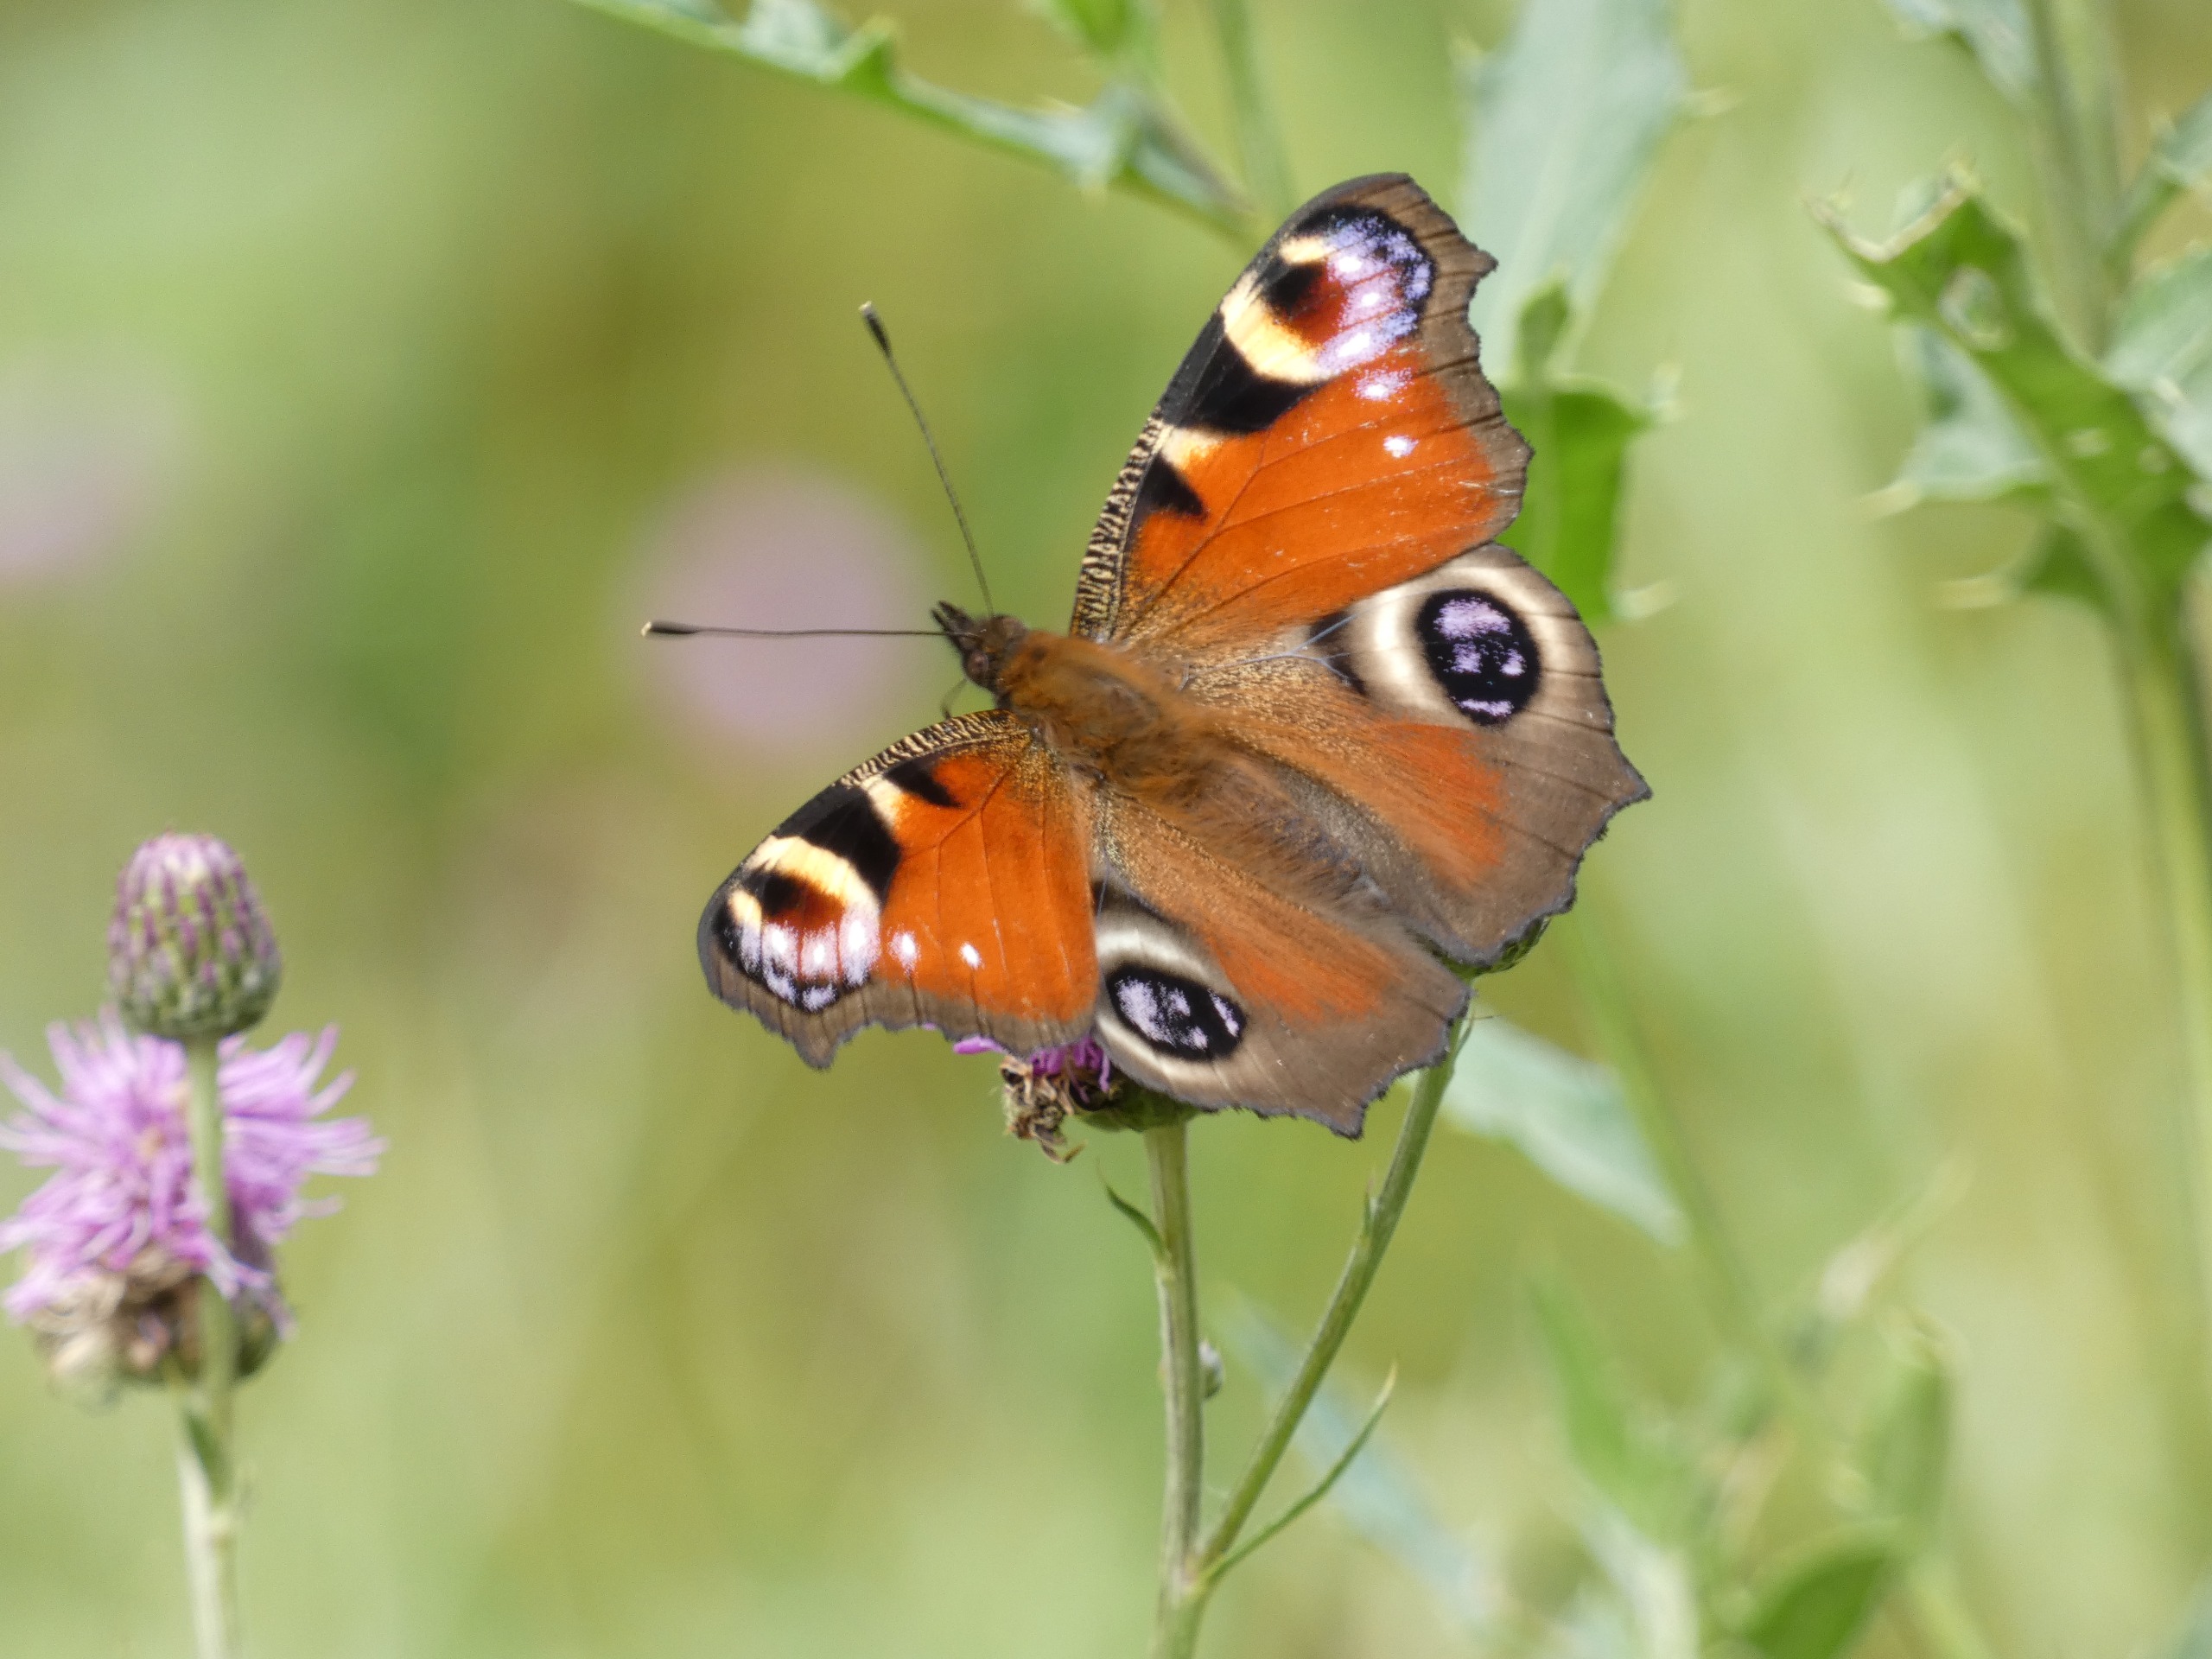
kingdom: Animalia
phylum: Arthropoda
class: Insecta
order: Lepidoptera
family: Nymphalidae
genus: Aglais
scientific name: Aglais io
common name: Dagpåfugleøje
